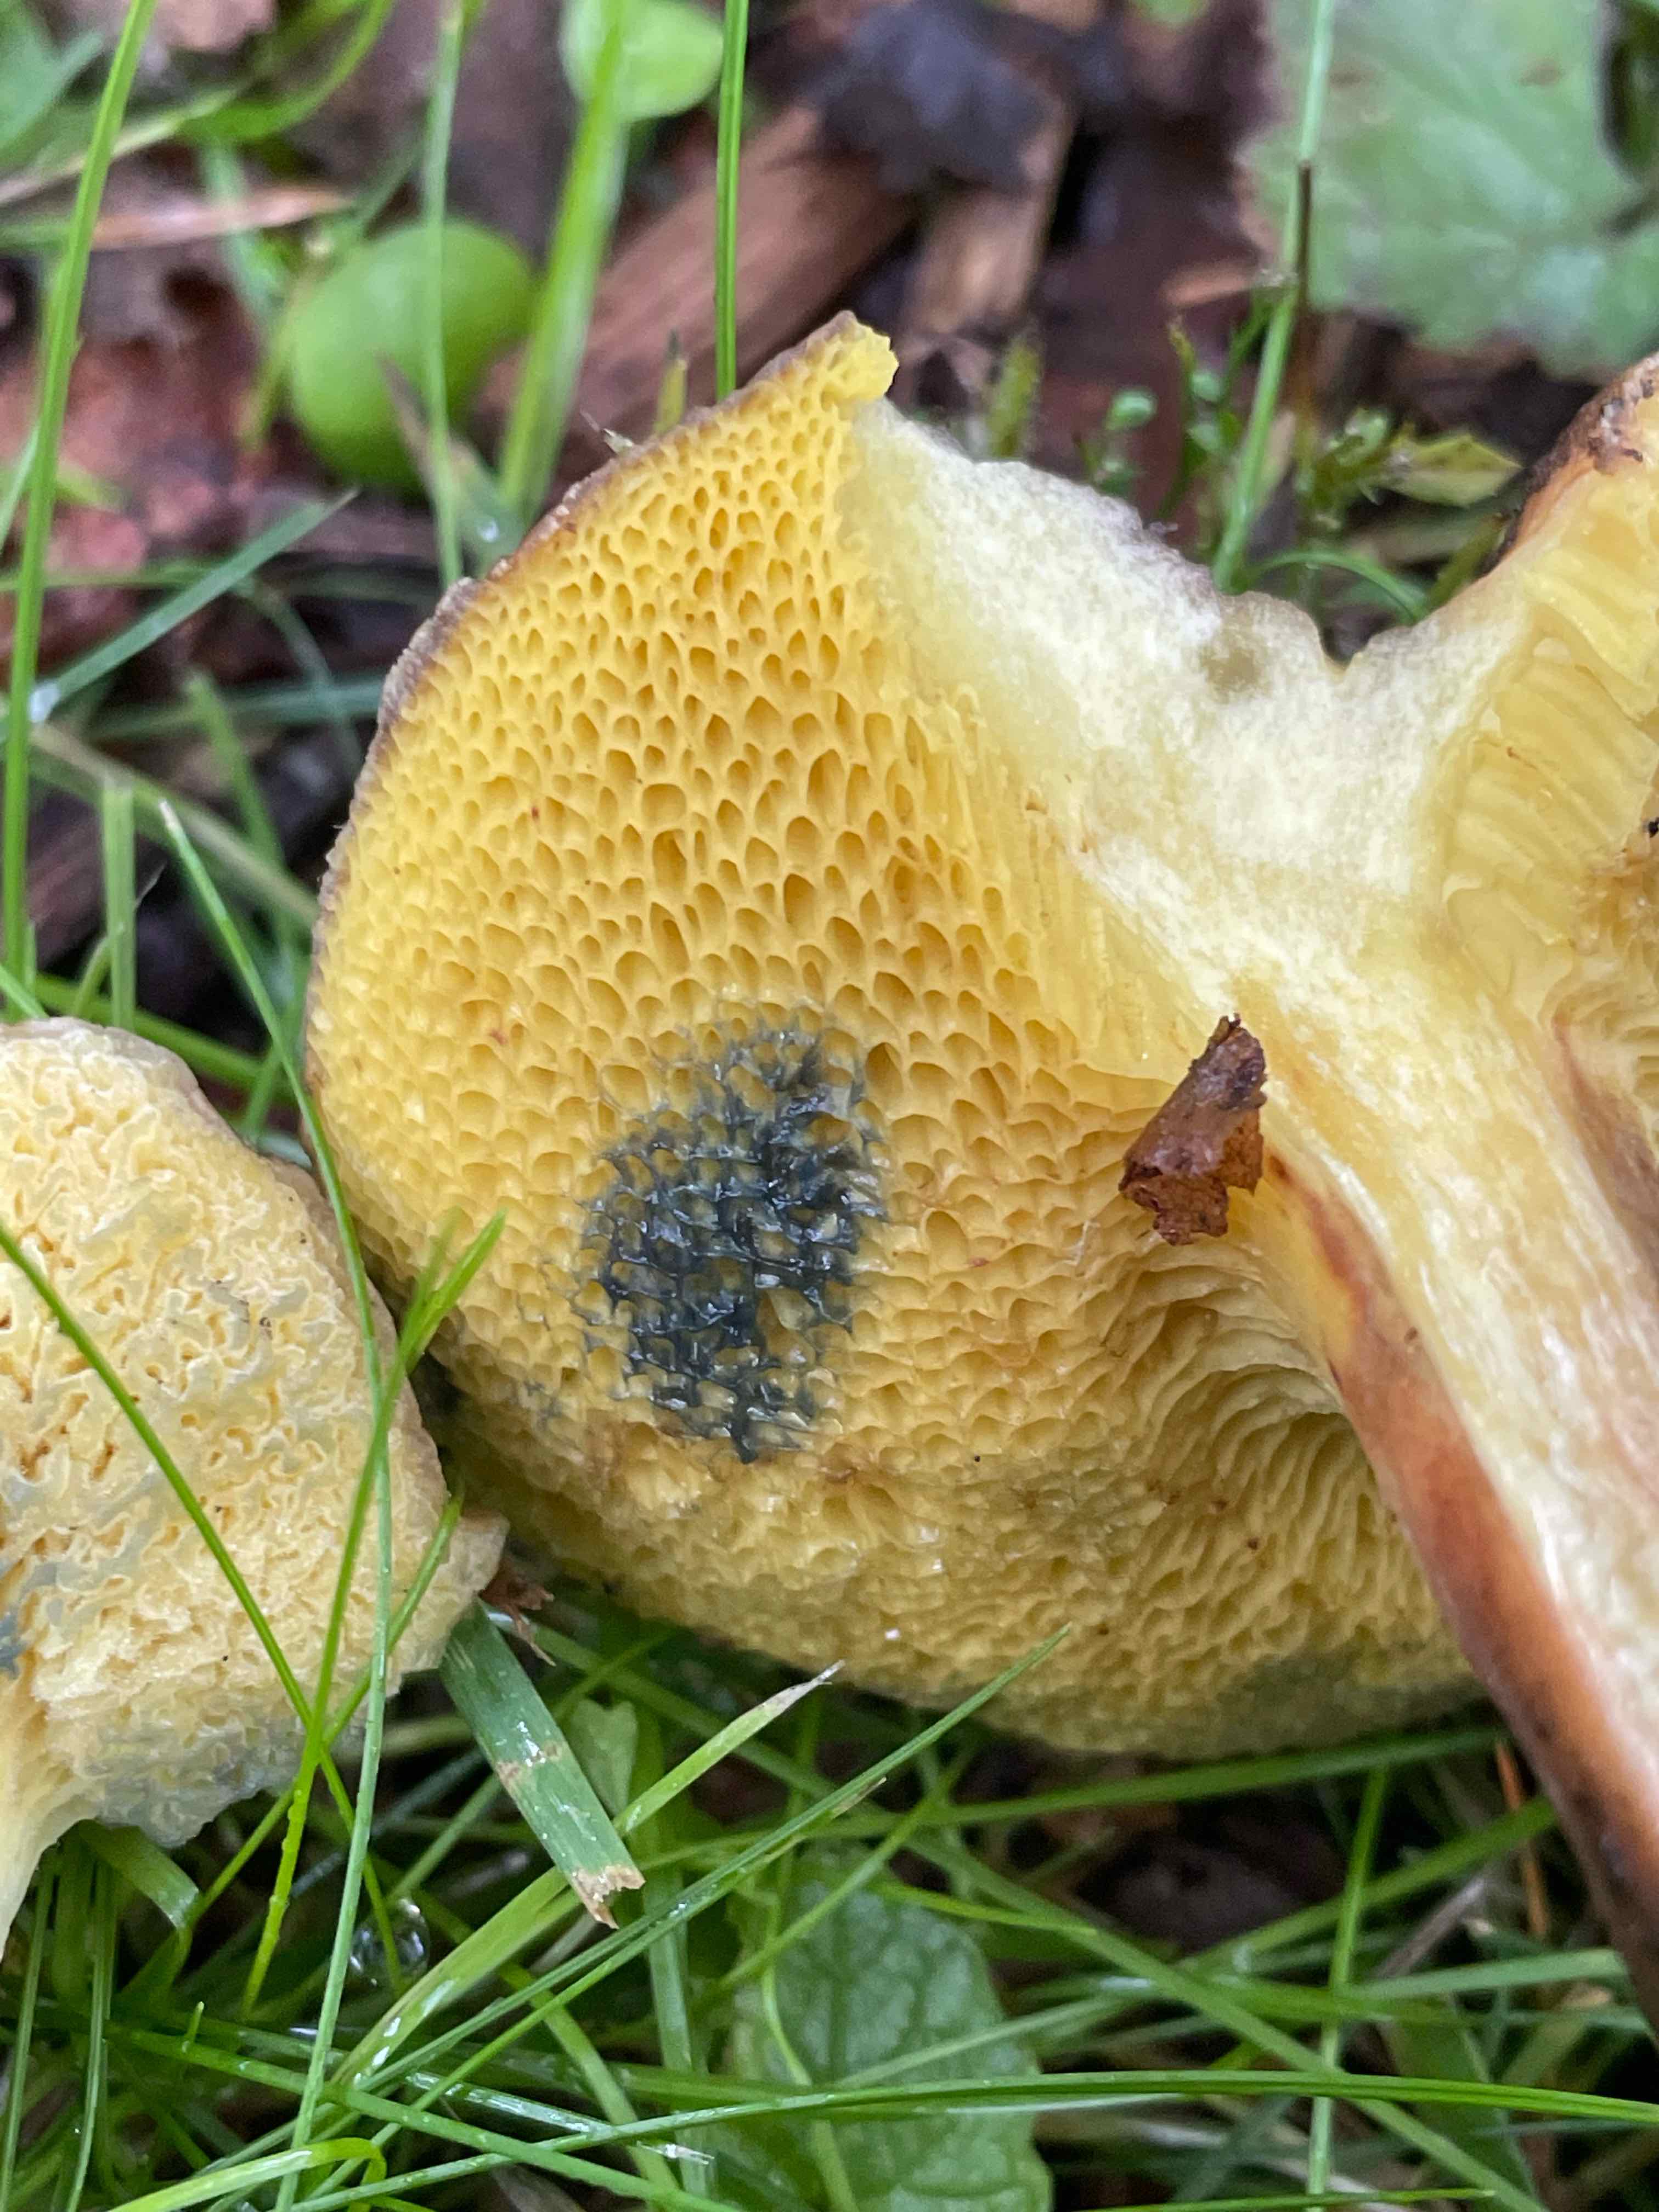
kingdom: Fungi
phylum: Basidiomycota
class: Agaricomycetes
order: Boletales
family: Boletaceae
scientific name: Boletaceae
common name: rørhatfamilien
